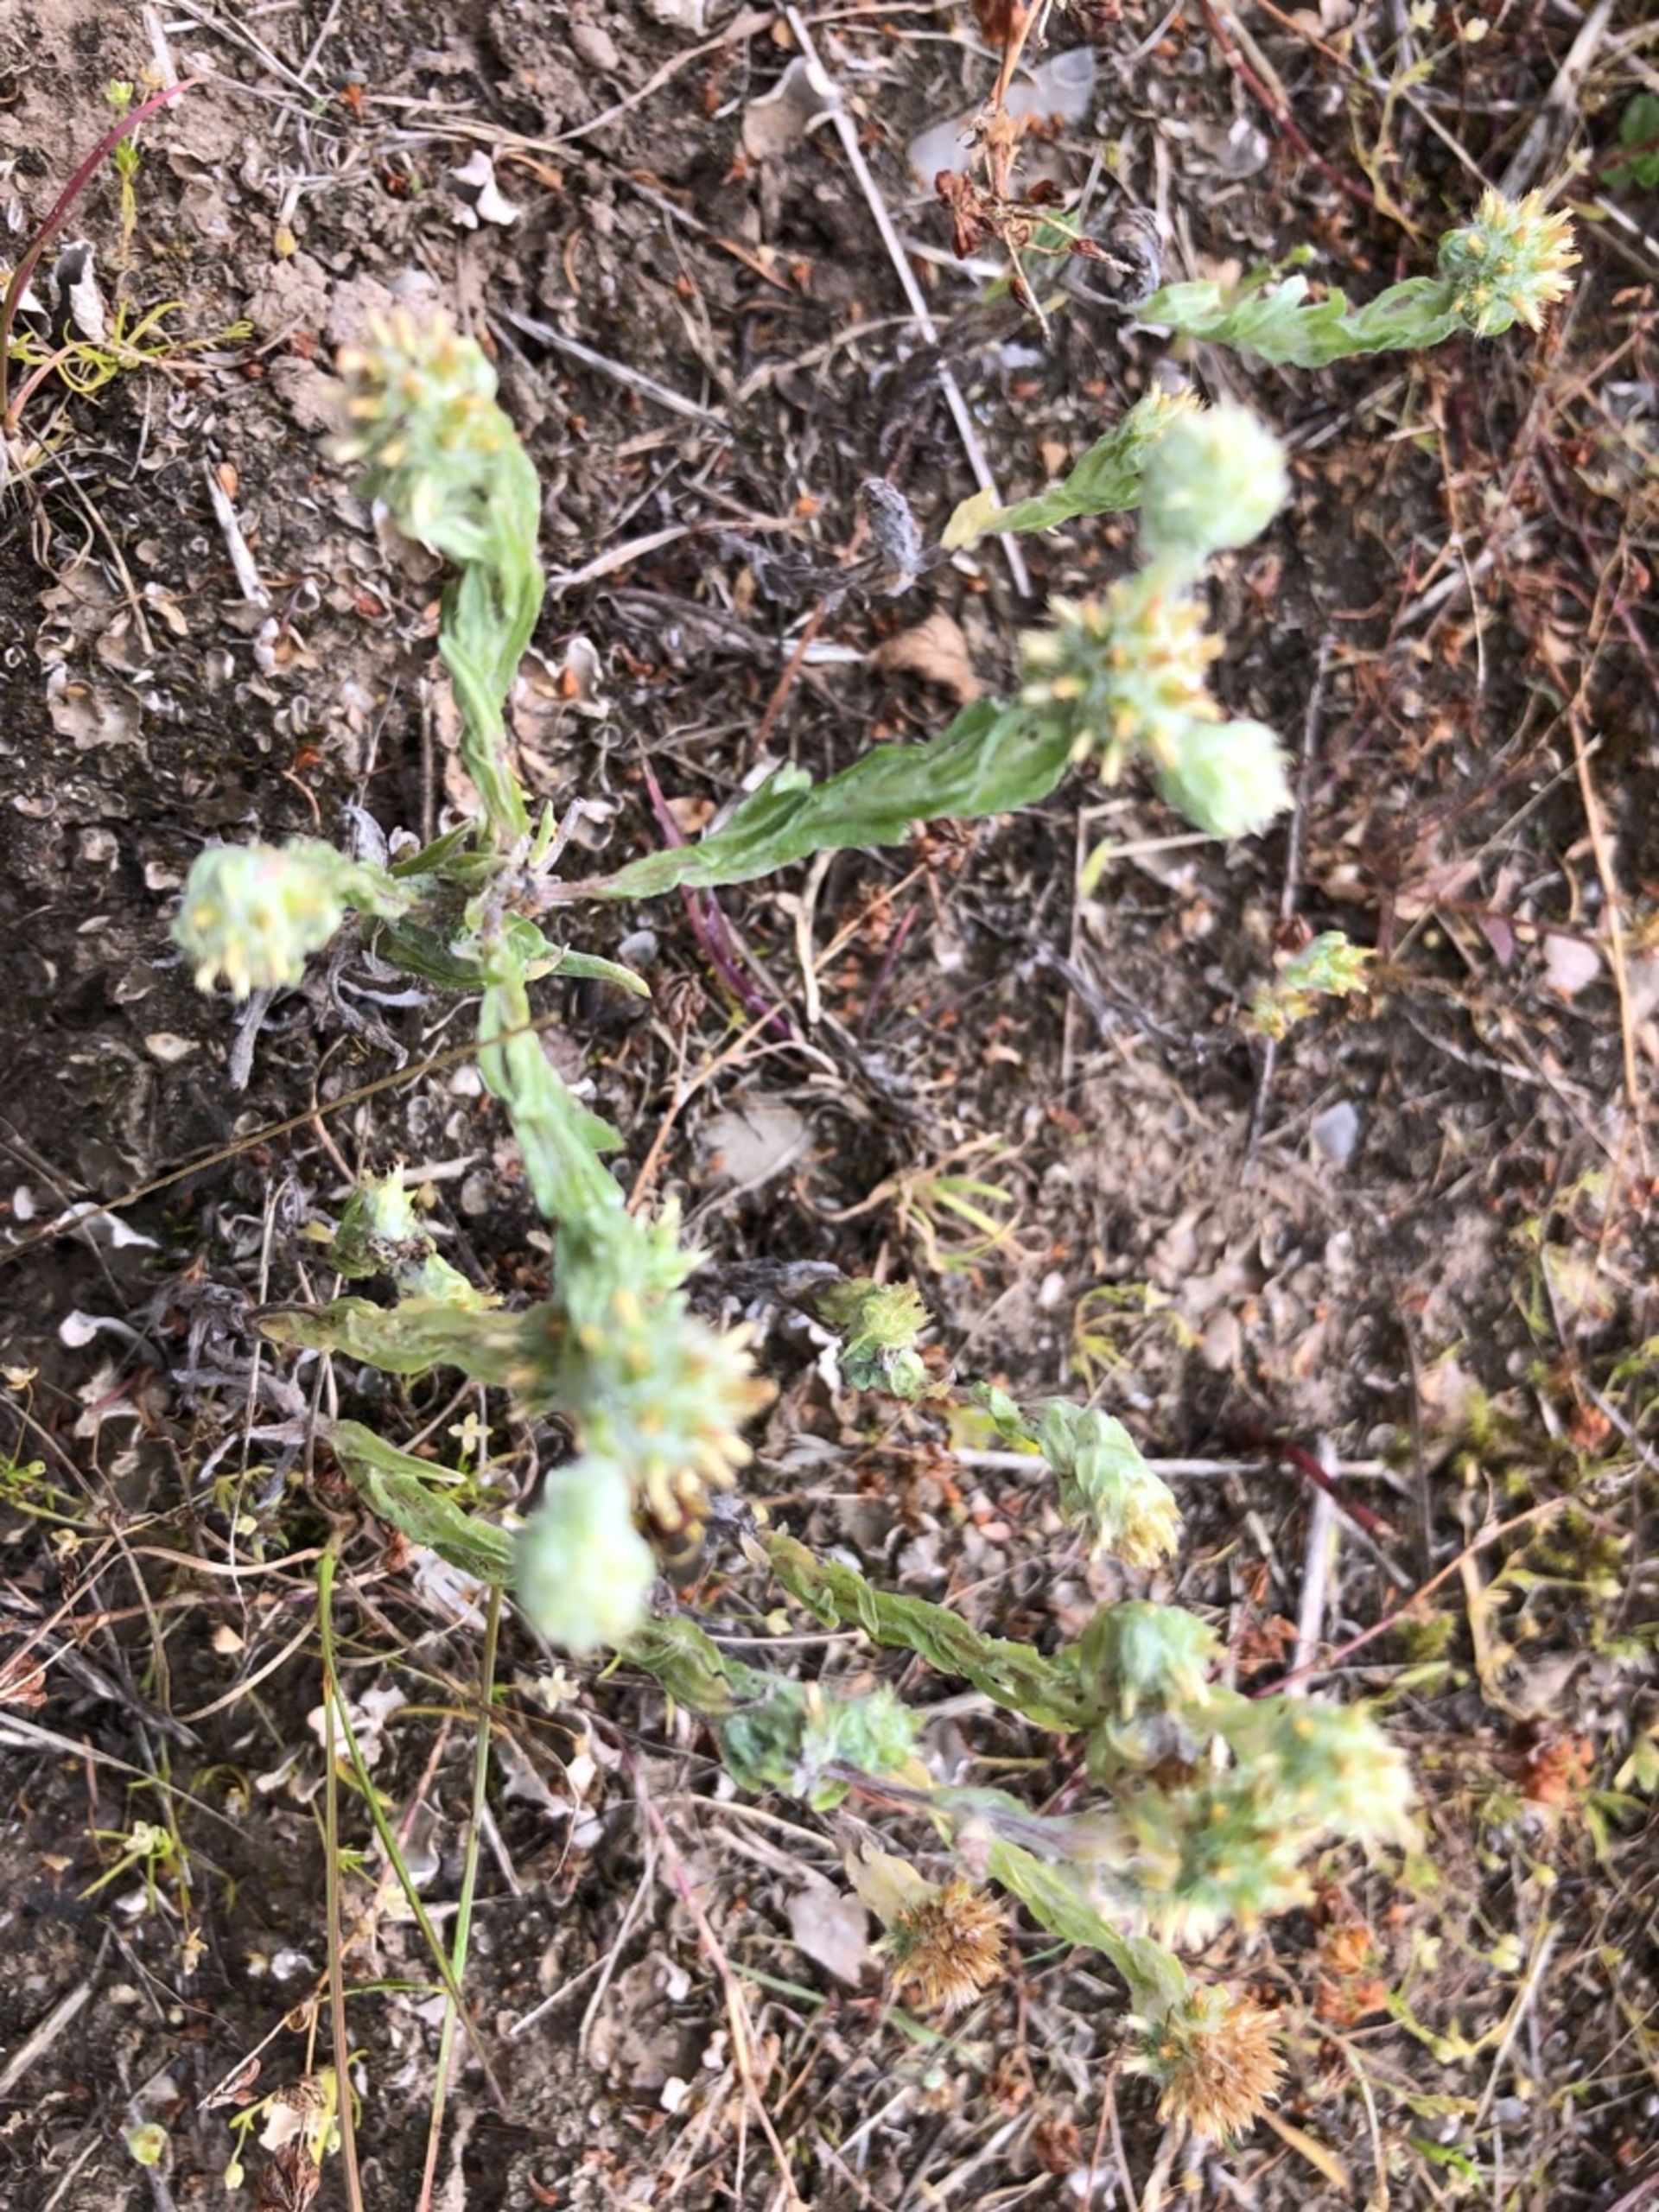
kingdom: Plantae
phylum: Tracheophyta
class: Magnoliopsida
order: Asterales
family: Asteraceae
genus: Filago
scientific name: Filago germanica
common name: Kugle-museurt
